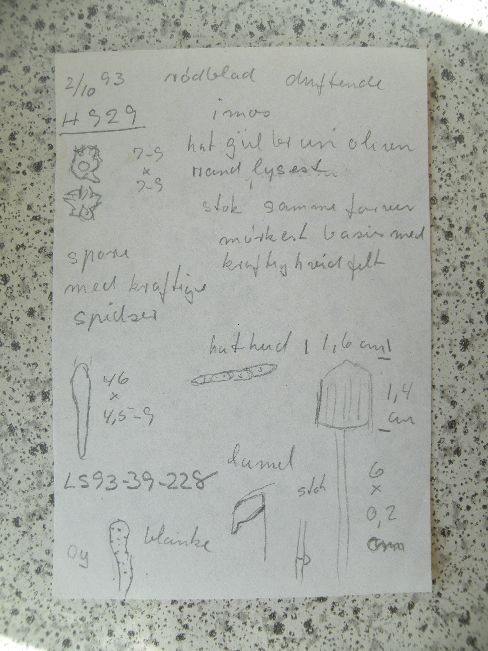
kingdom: Fungi
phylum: Basidiomycota
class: Agaricomycetes
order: Agaricales
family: Entolomataceae
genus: Entoloma
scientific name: Entoloma pleopodium
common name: duftende rødblad
